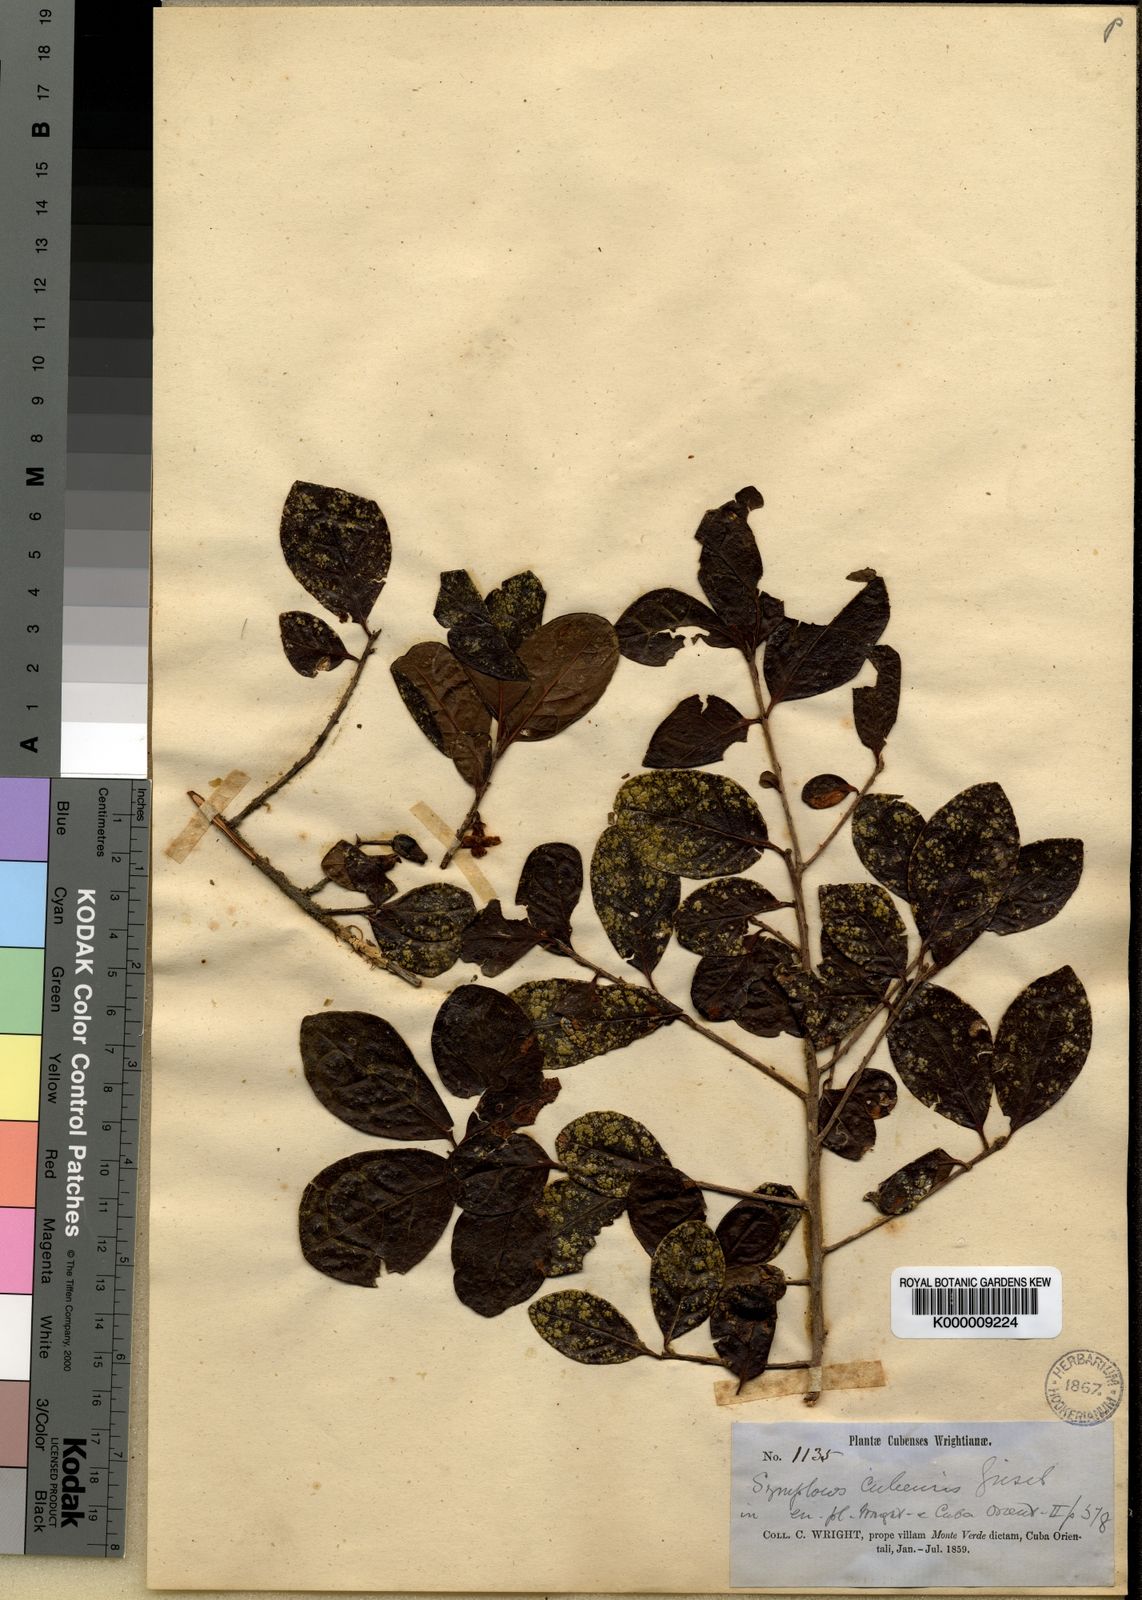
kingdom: Plantae
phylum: Tracheophyta
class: Magnoliopsida
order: Ericales
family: Symplocaceae
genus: Symplocos
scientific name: Symplocos cubensis
